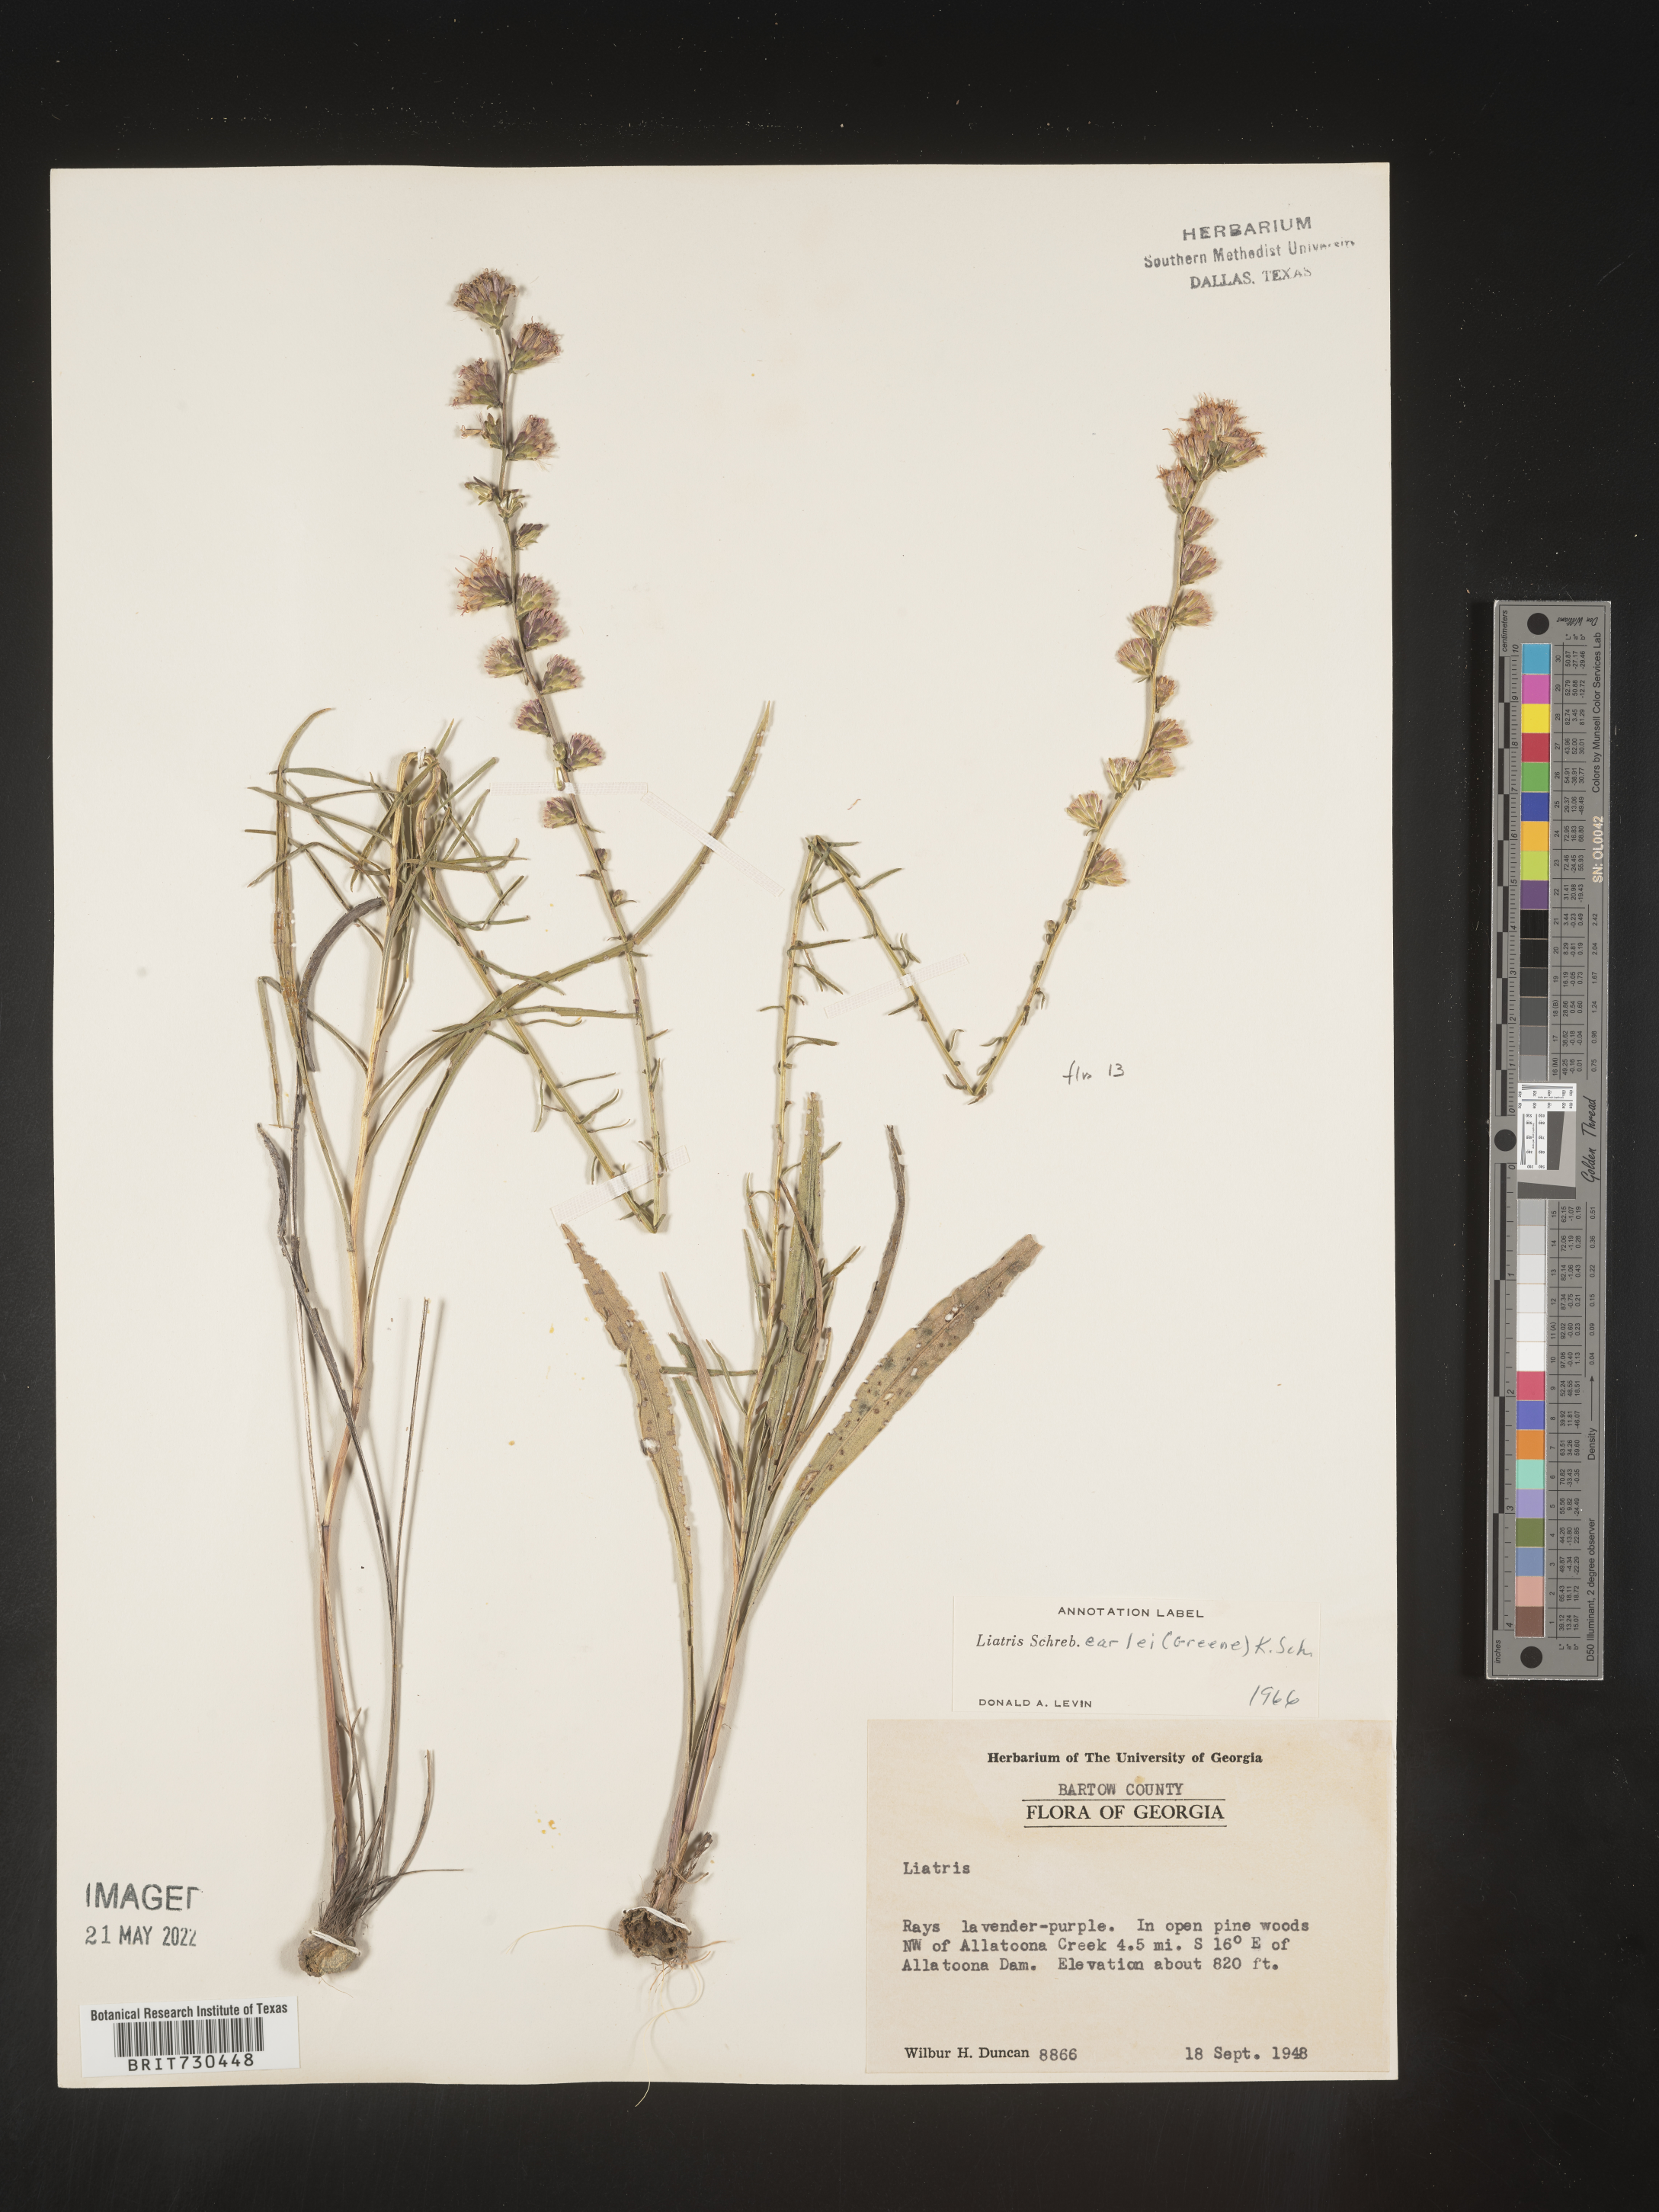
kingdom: Plantae
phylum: Tracheophyta
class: Magnoliopsida
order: Asterales
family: Asteraceae
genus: Liatris
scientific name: Liatris elegantula
